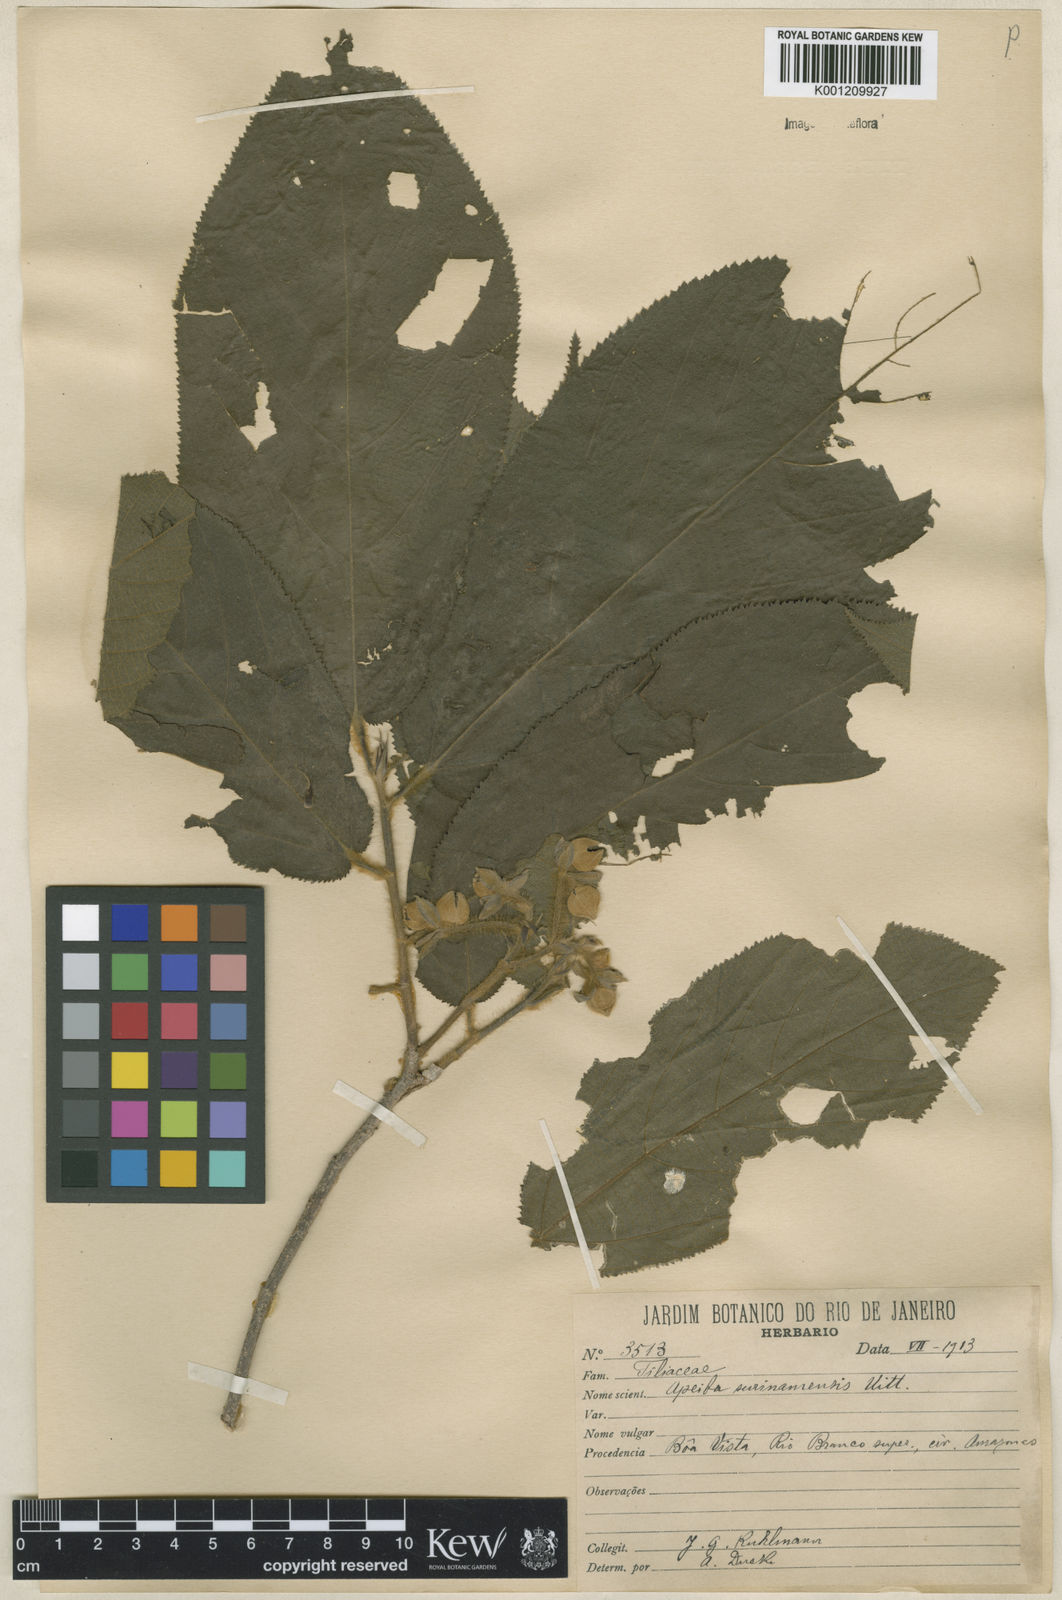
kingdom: Plantae
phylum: Tracheophyta
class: Magnoliopsida
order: Malvales
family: Malvaceae
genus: Apeiba
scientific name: Apeiba tibourbou
